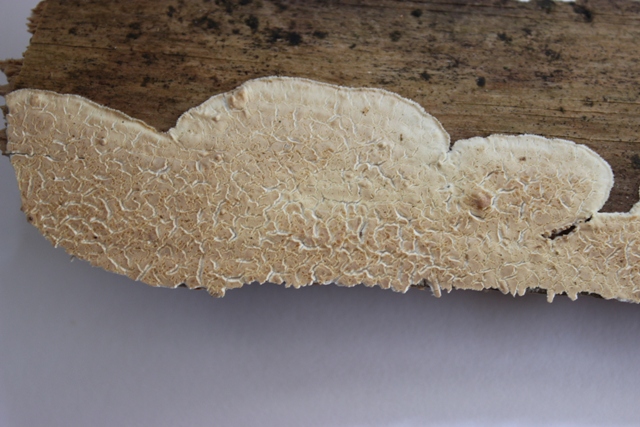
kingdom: Fungi
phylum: Basidiomycota
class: Agaricomycetes
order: Agaricales
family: Physalacriaceae
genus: Cylindrobasidium
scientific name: Cylindrobasidium evolvens
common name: sprækkehinde
